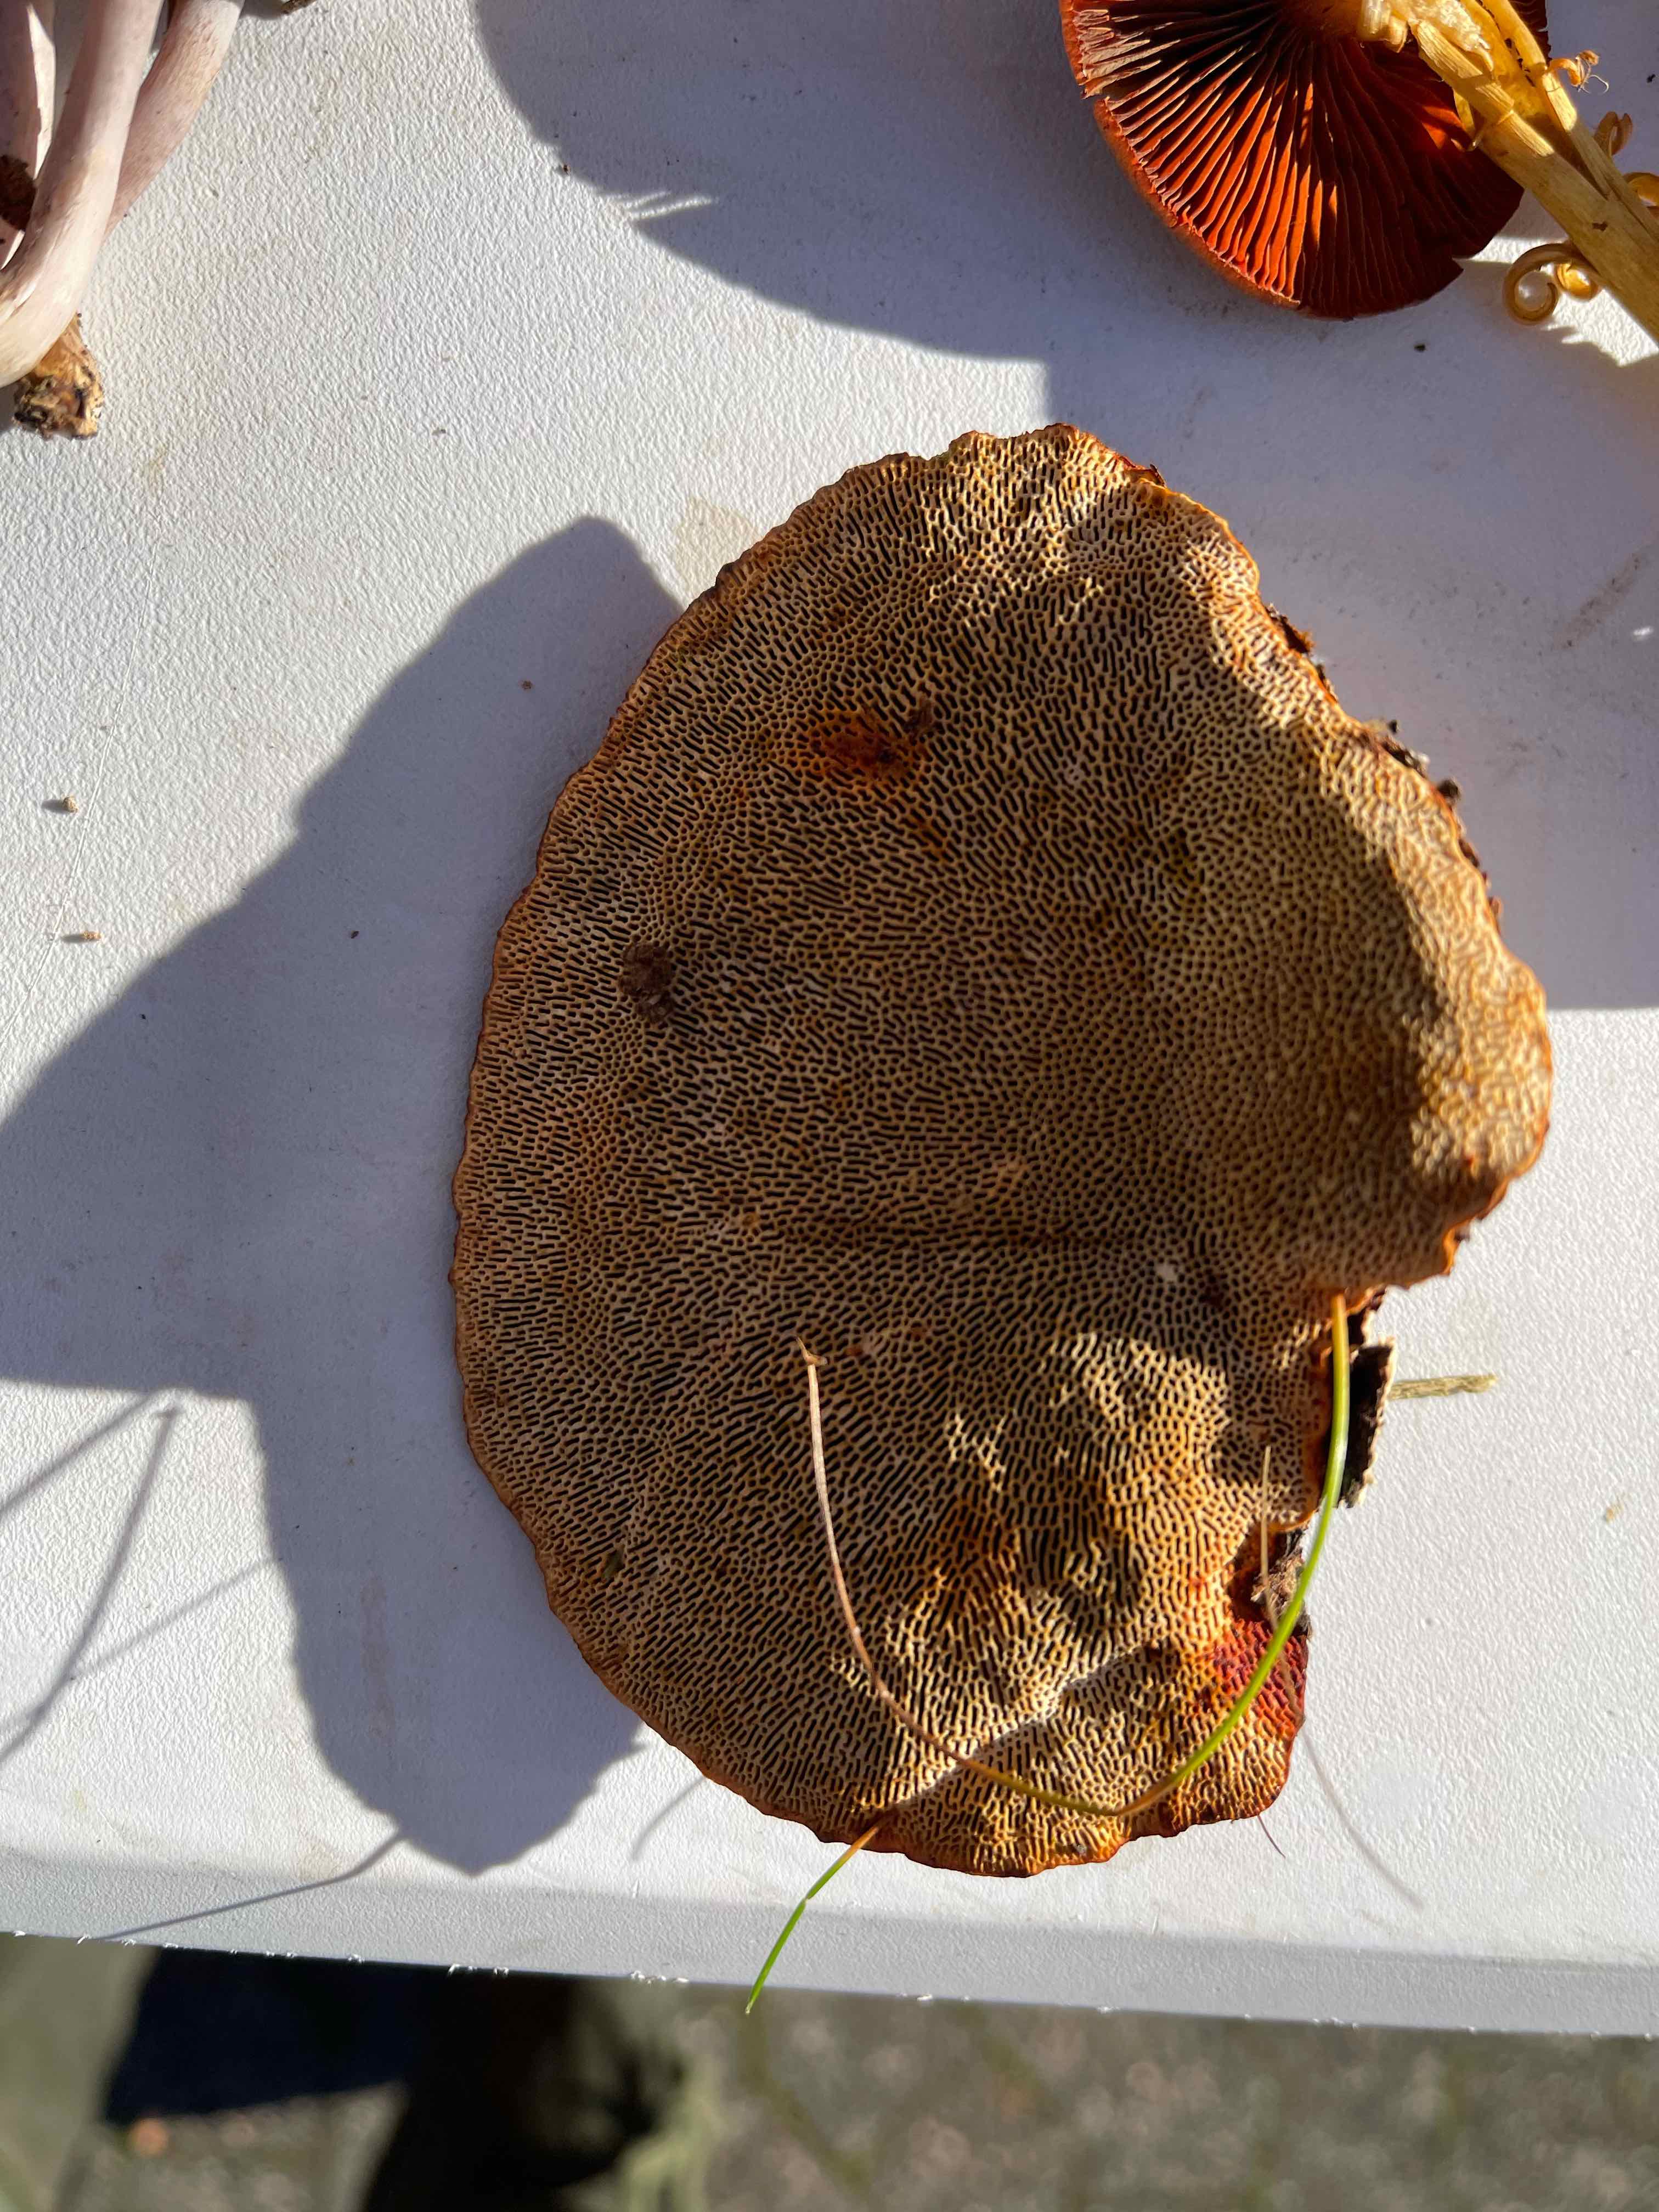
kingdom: Fungi
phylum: Basidiomycota
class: Agaricomycetes
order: Polyporales
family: Polyporaceae
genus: Daedaleopsis
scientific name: Daedaleopsis confragosa
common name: rødmende læderporesvamp
